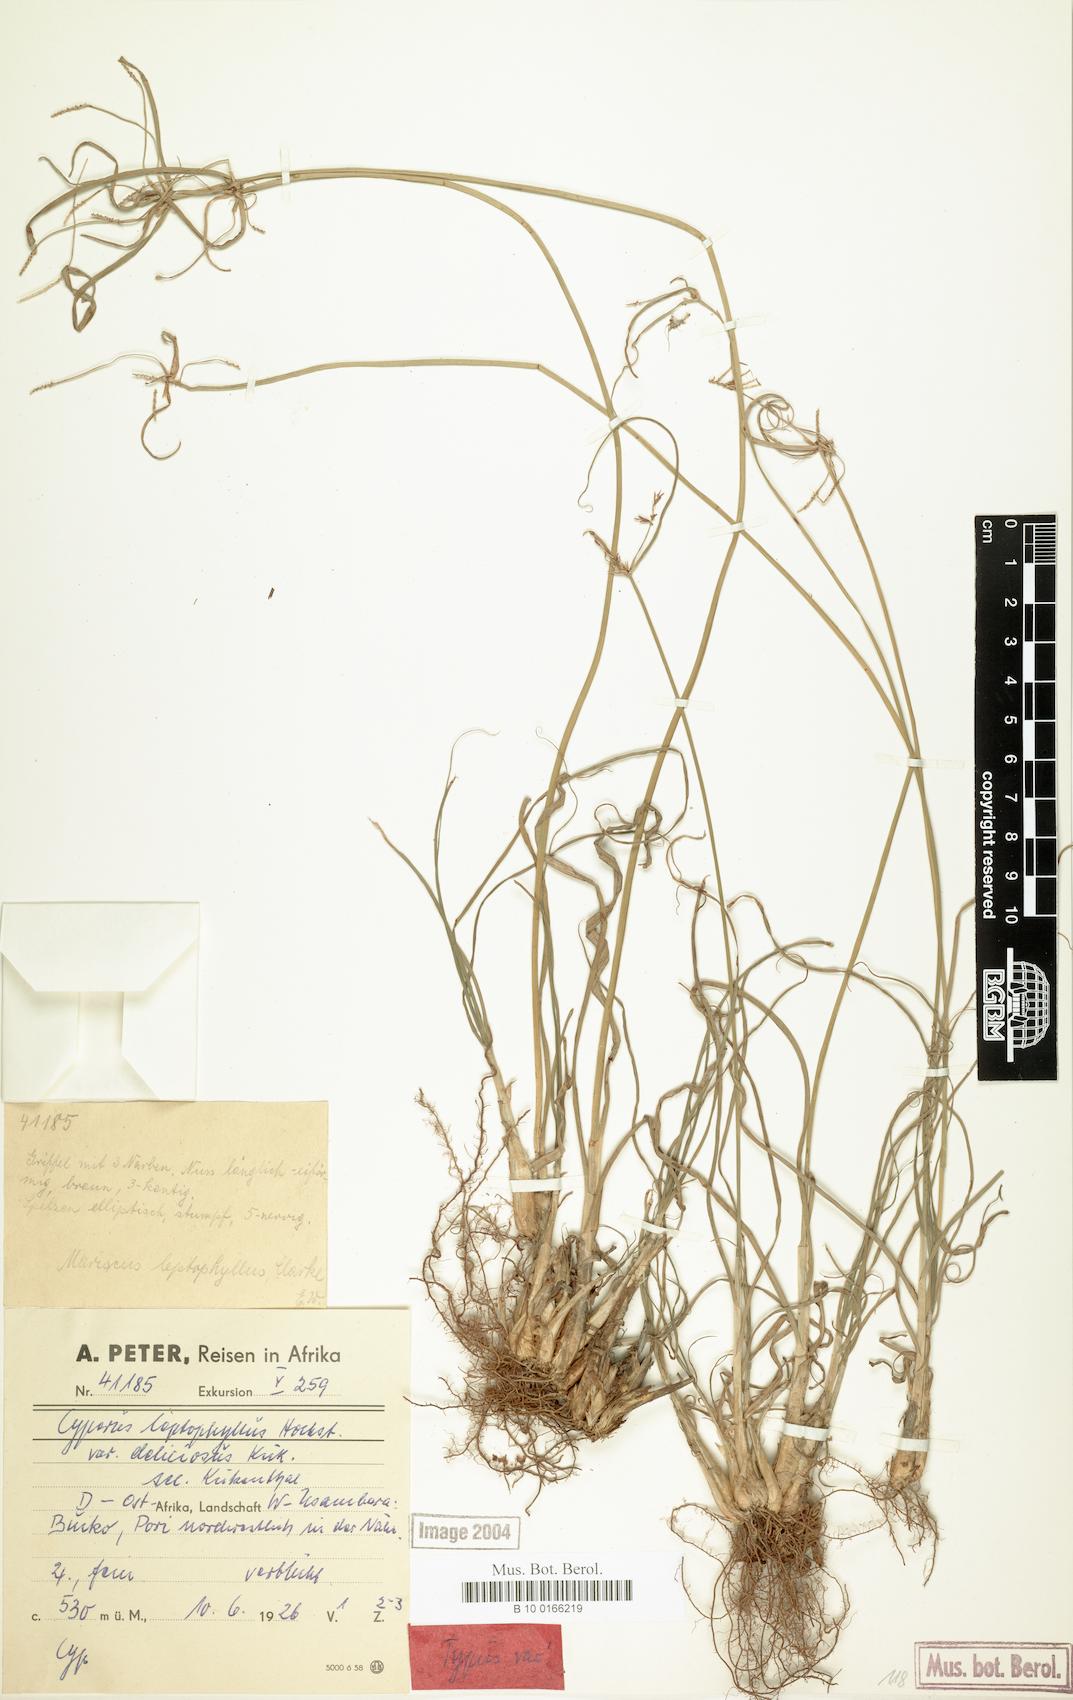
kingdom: Plantae
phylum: Tracheophyta
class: Liliopsida
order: Poales
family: Cyperaceae
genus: Cyperus
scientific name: Cyperus amauropus
